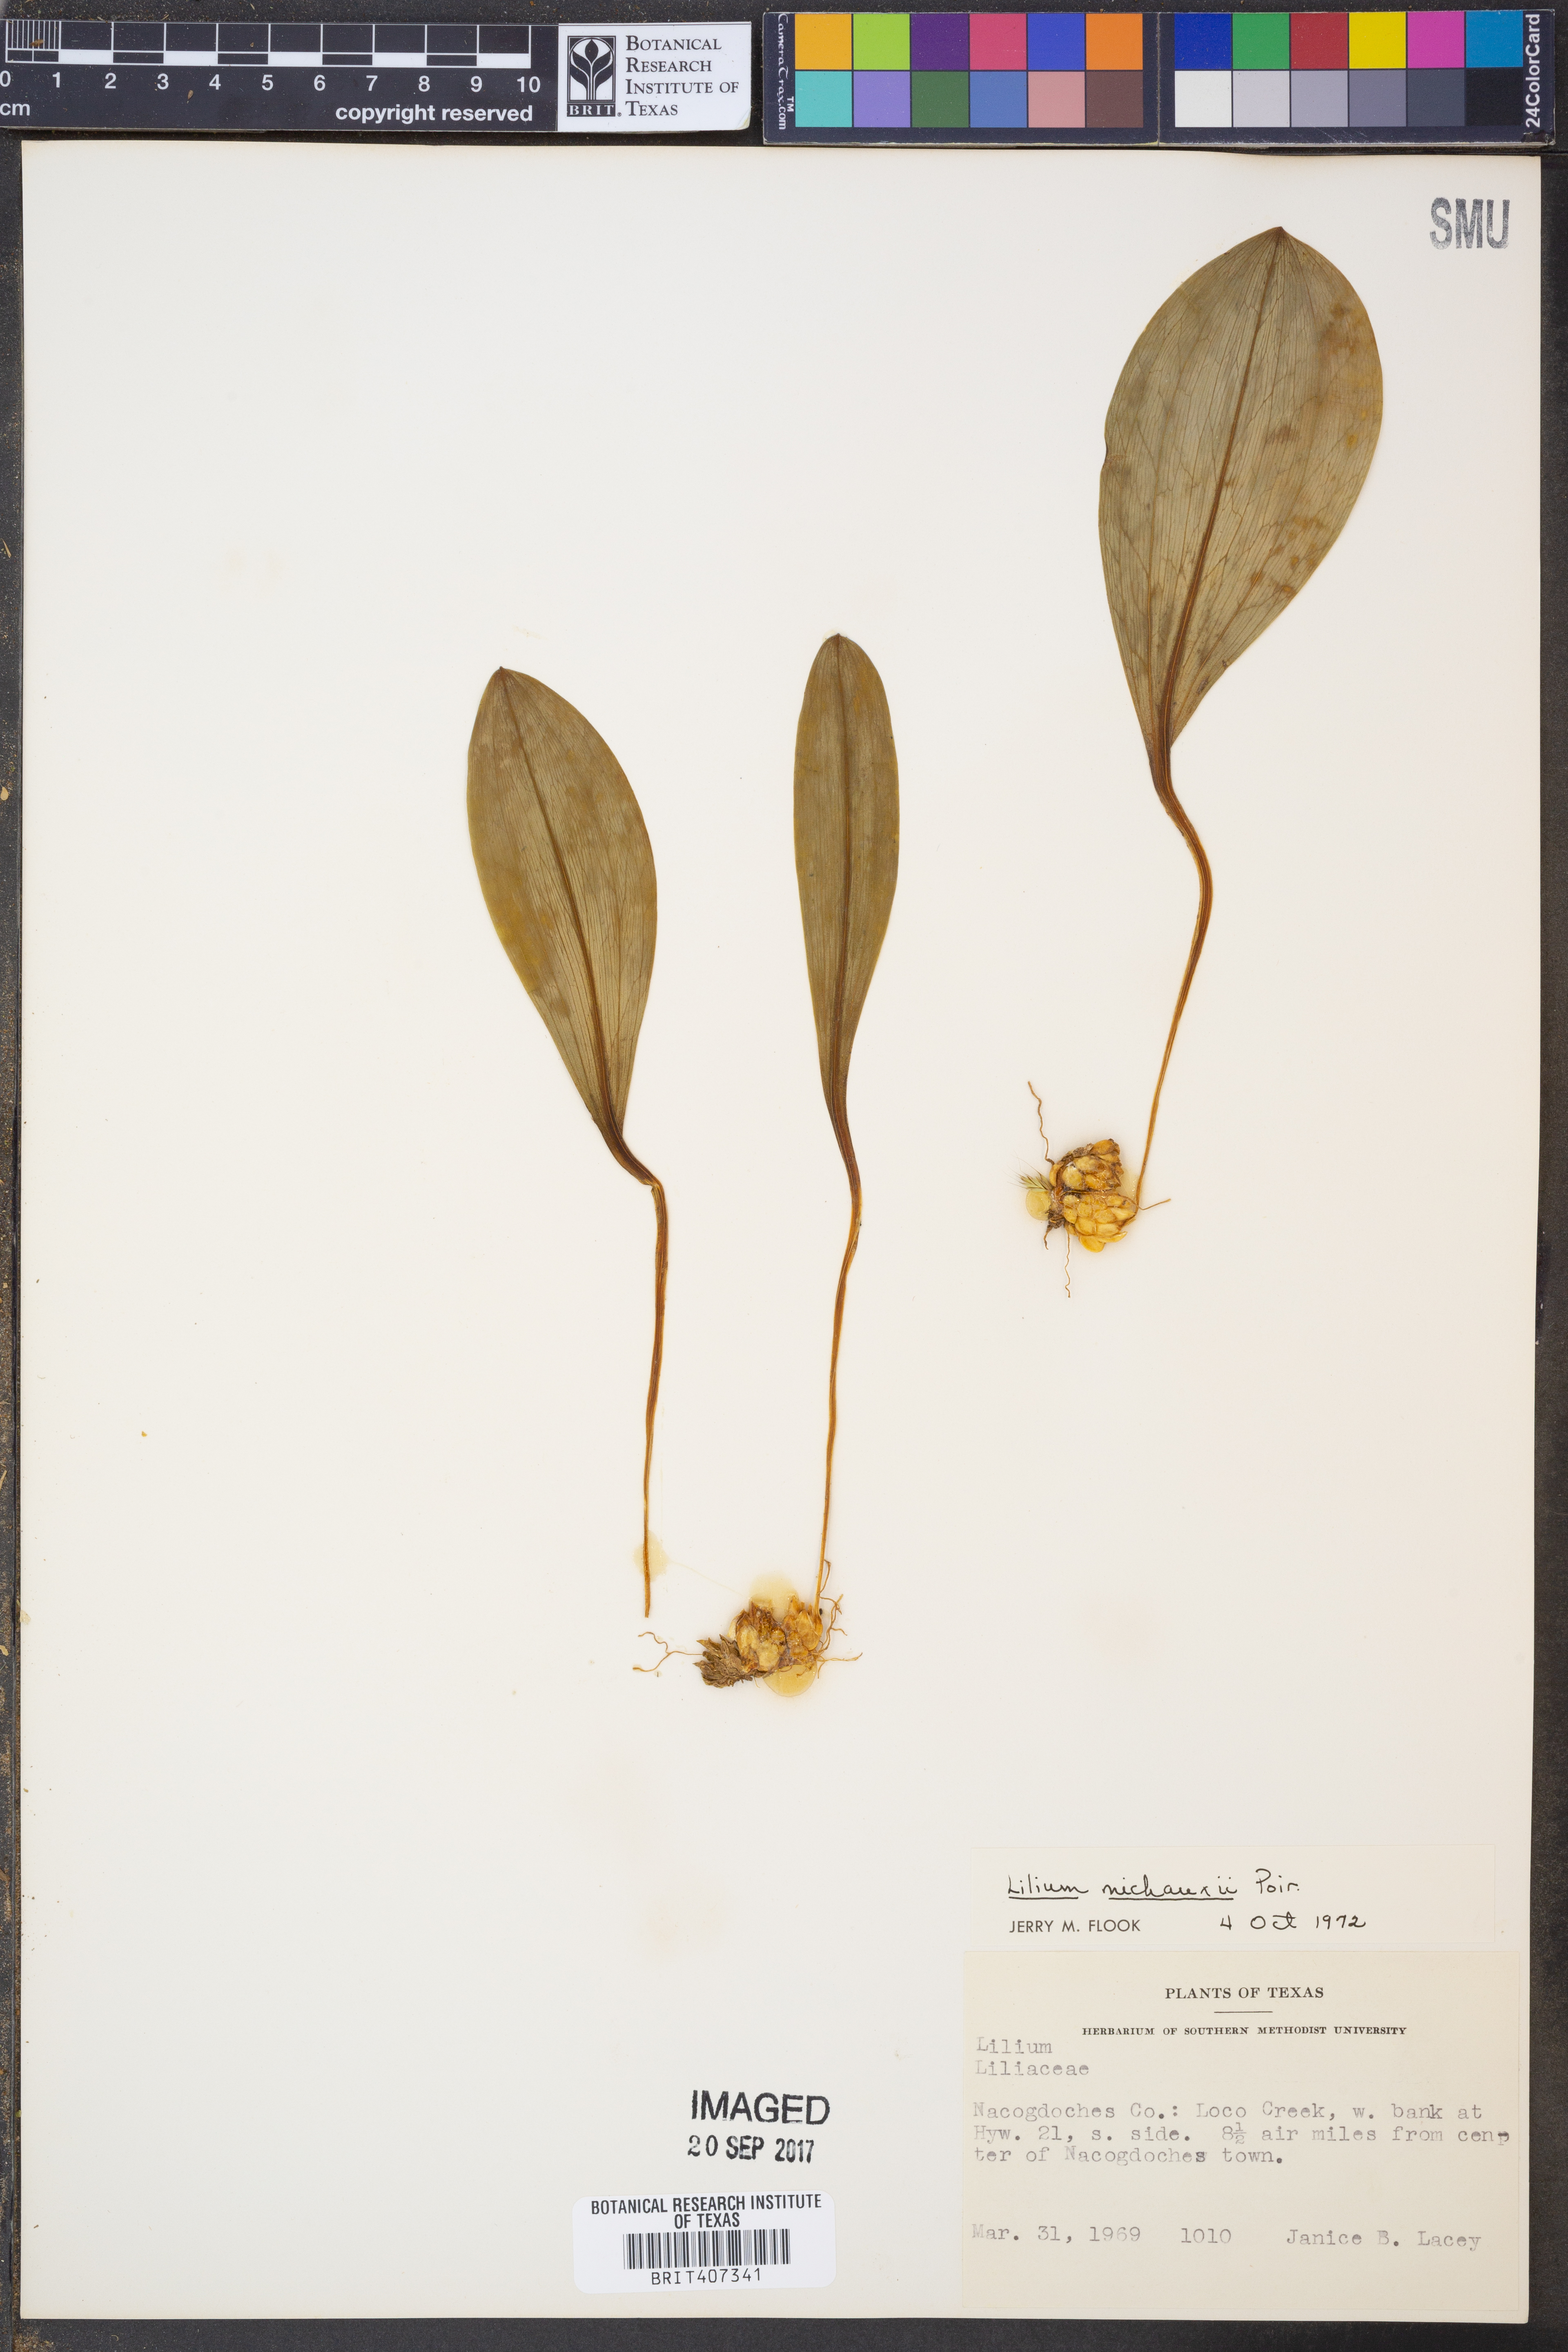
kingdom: Plantae
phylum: Tracheophyta
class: Liliopsida
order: Liliales
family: Liliaceae
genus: Lilium
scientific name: Lilium michauxii
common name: Carolina lily
